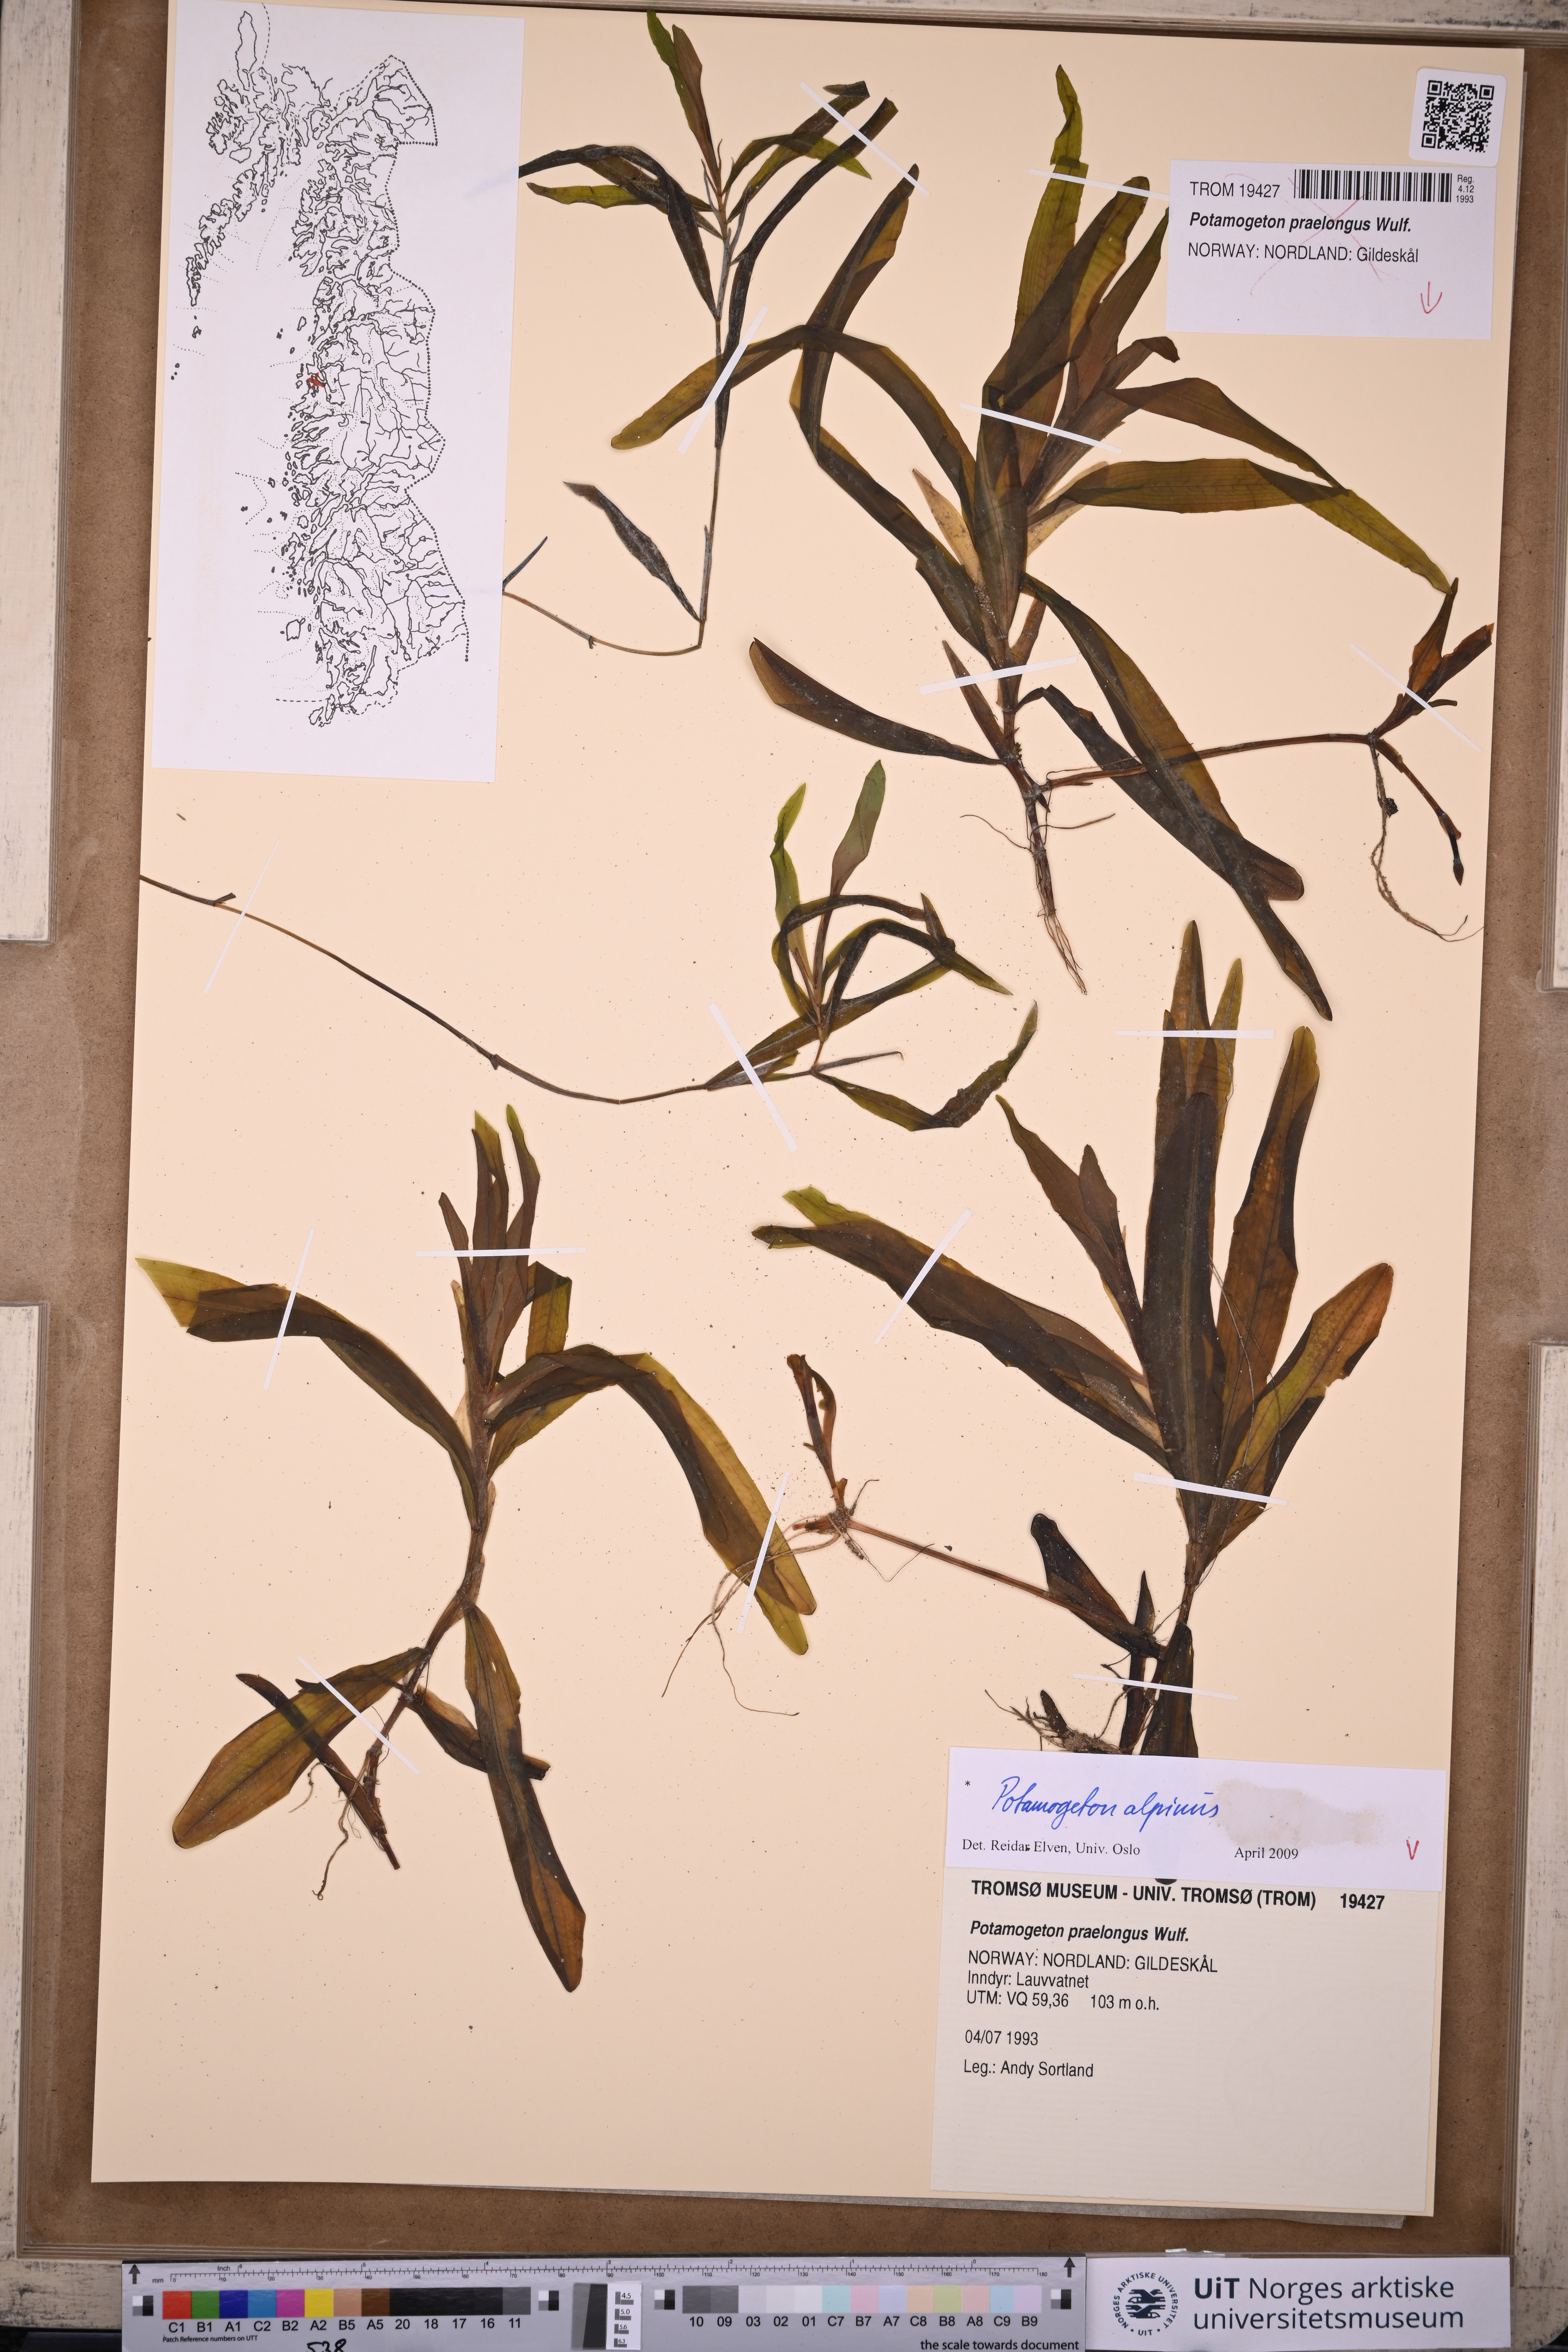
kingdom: Plantae
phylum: Tracheophyta
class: Liliopsida
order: Alismatales
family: Potamogetonaceae
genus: Potamogeton
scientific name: Potamogeton alpinus
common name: Red pondweed
